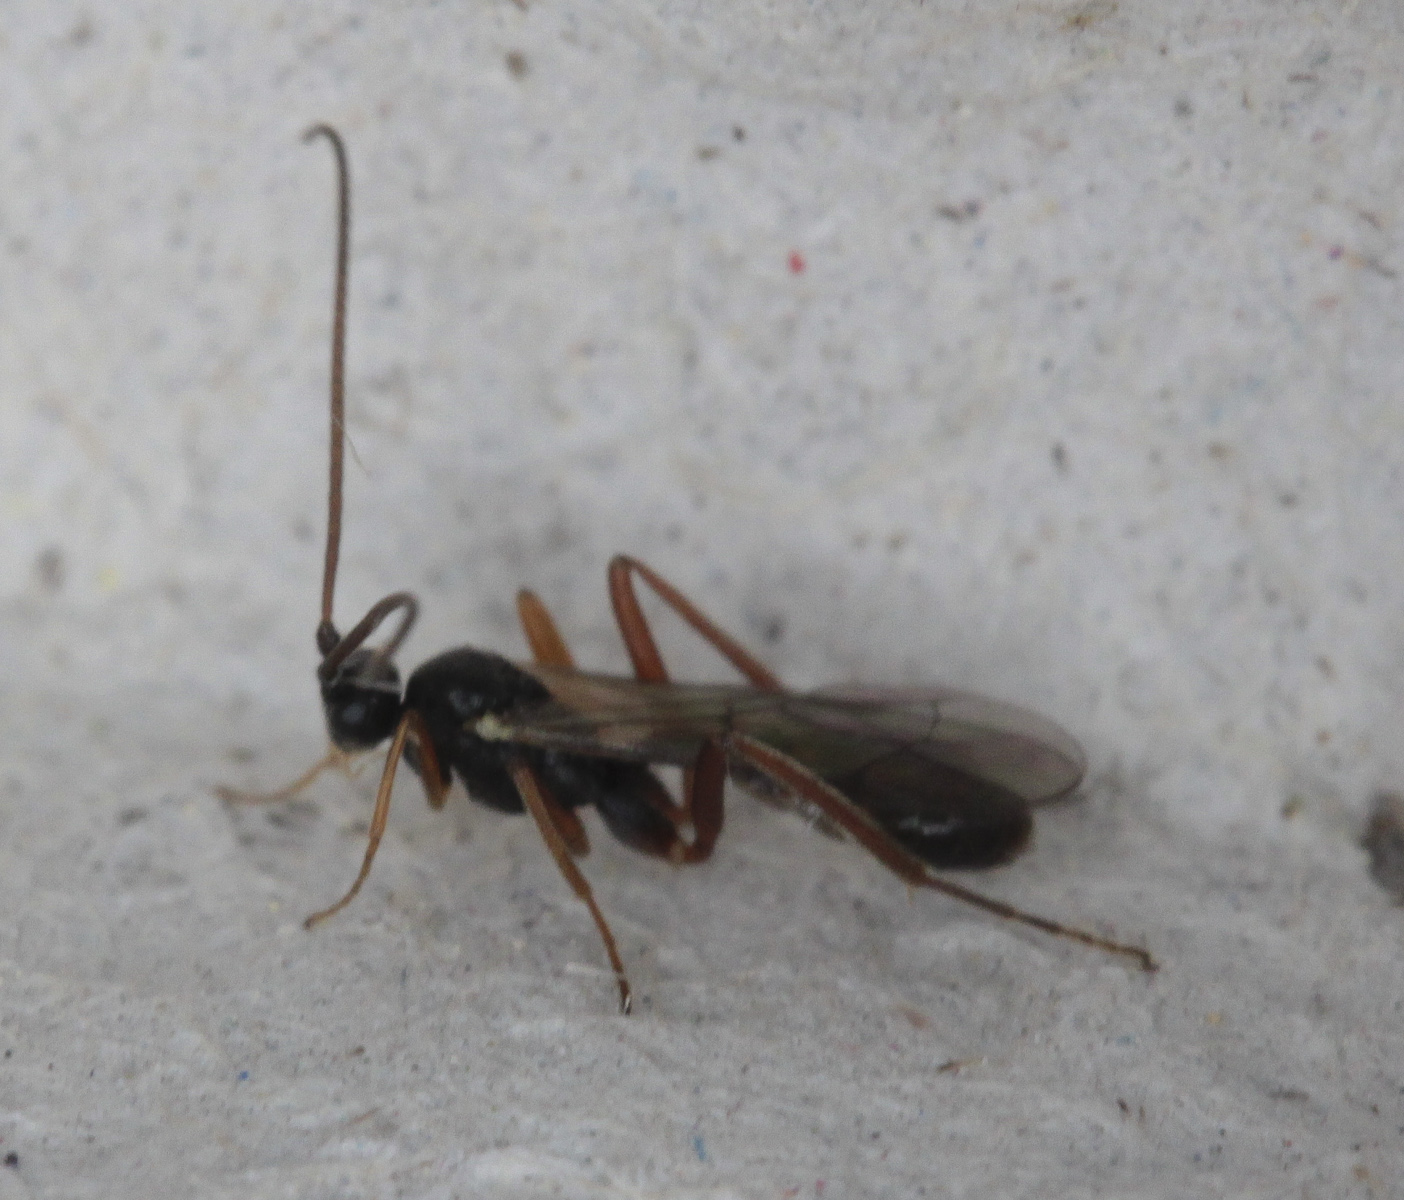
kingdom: Animalia
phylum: Arthropoda
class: Insecta
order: Hymenoptera
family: Ichneumonidae
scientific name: Ichneumonidae
